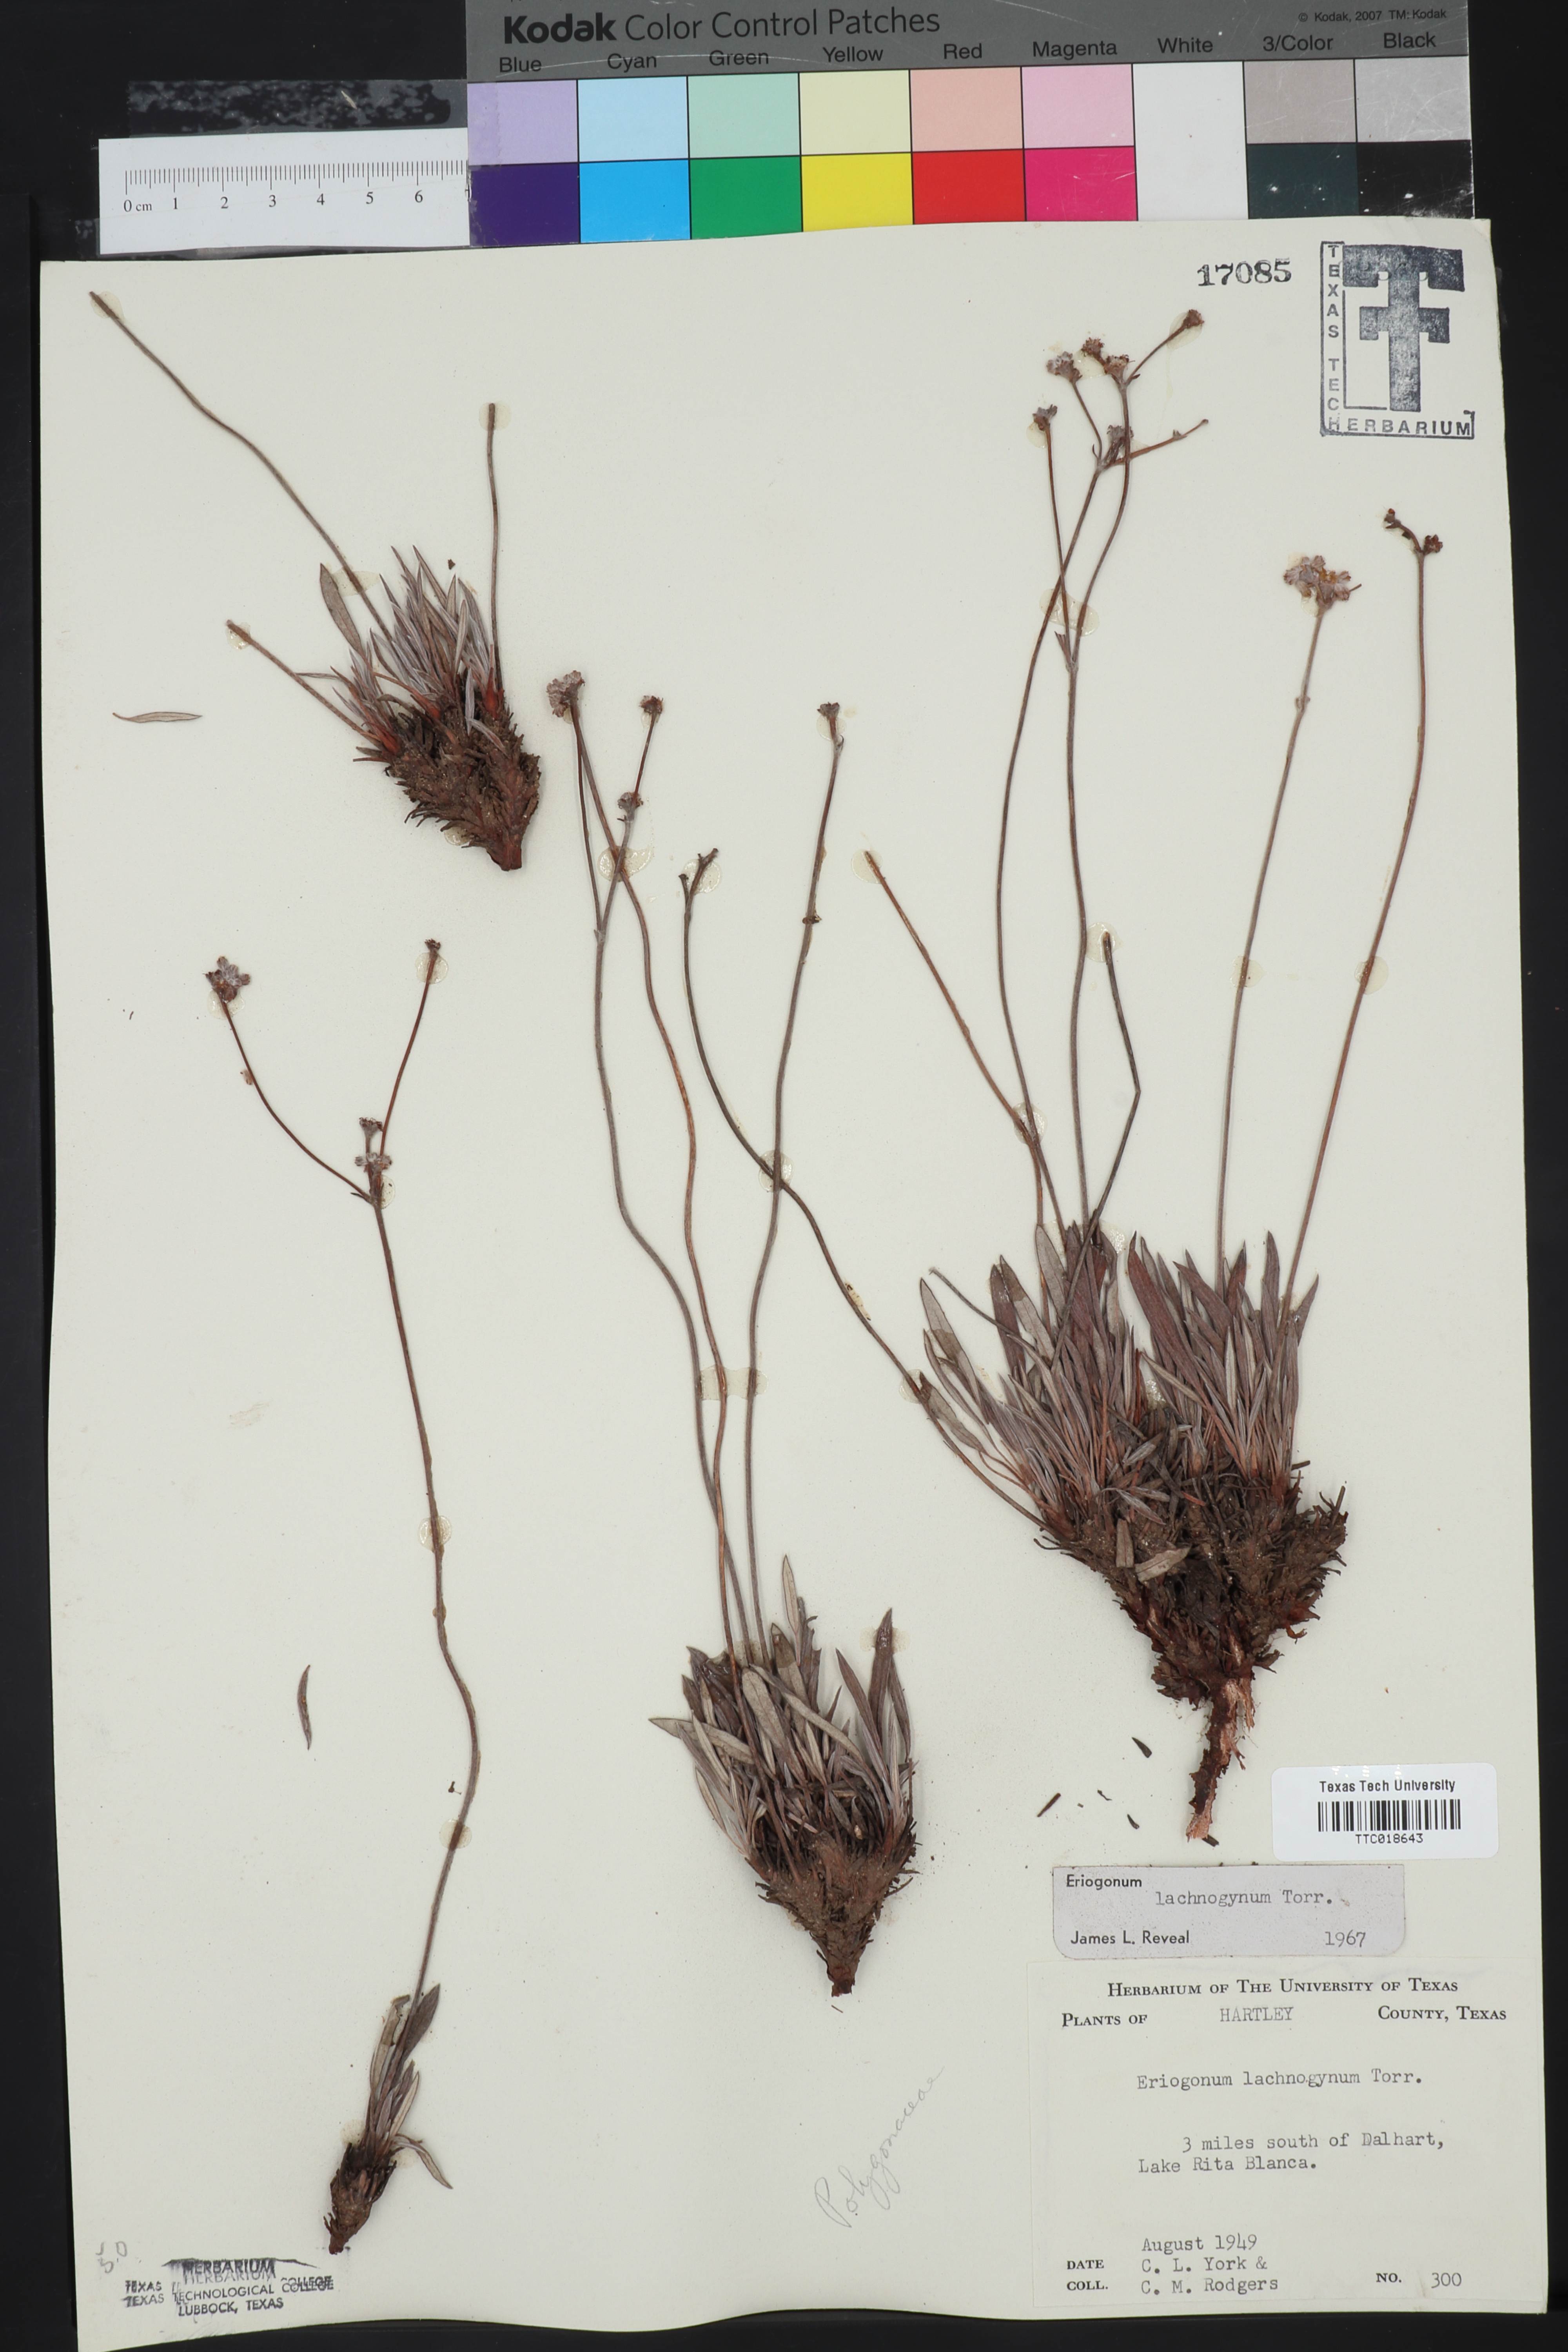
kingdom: Plantae
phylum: Tracheophyta
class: Magnoliopsida
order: Caryophyllales
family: Polygonaceae
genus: Eriogonum
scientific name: Eriogonum lachnogynum
